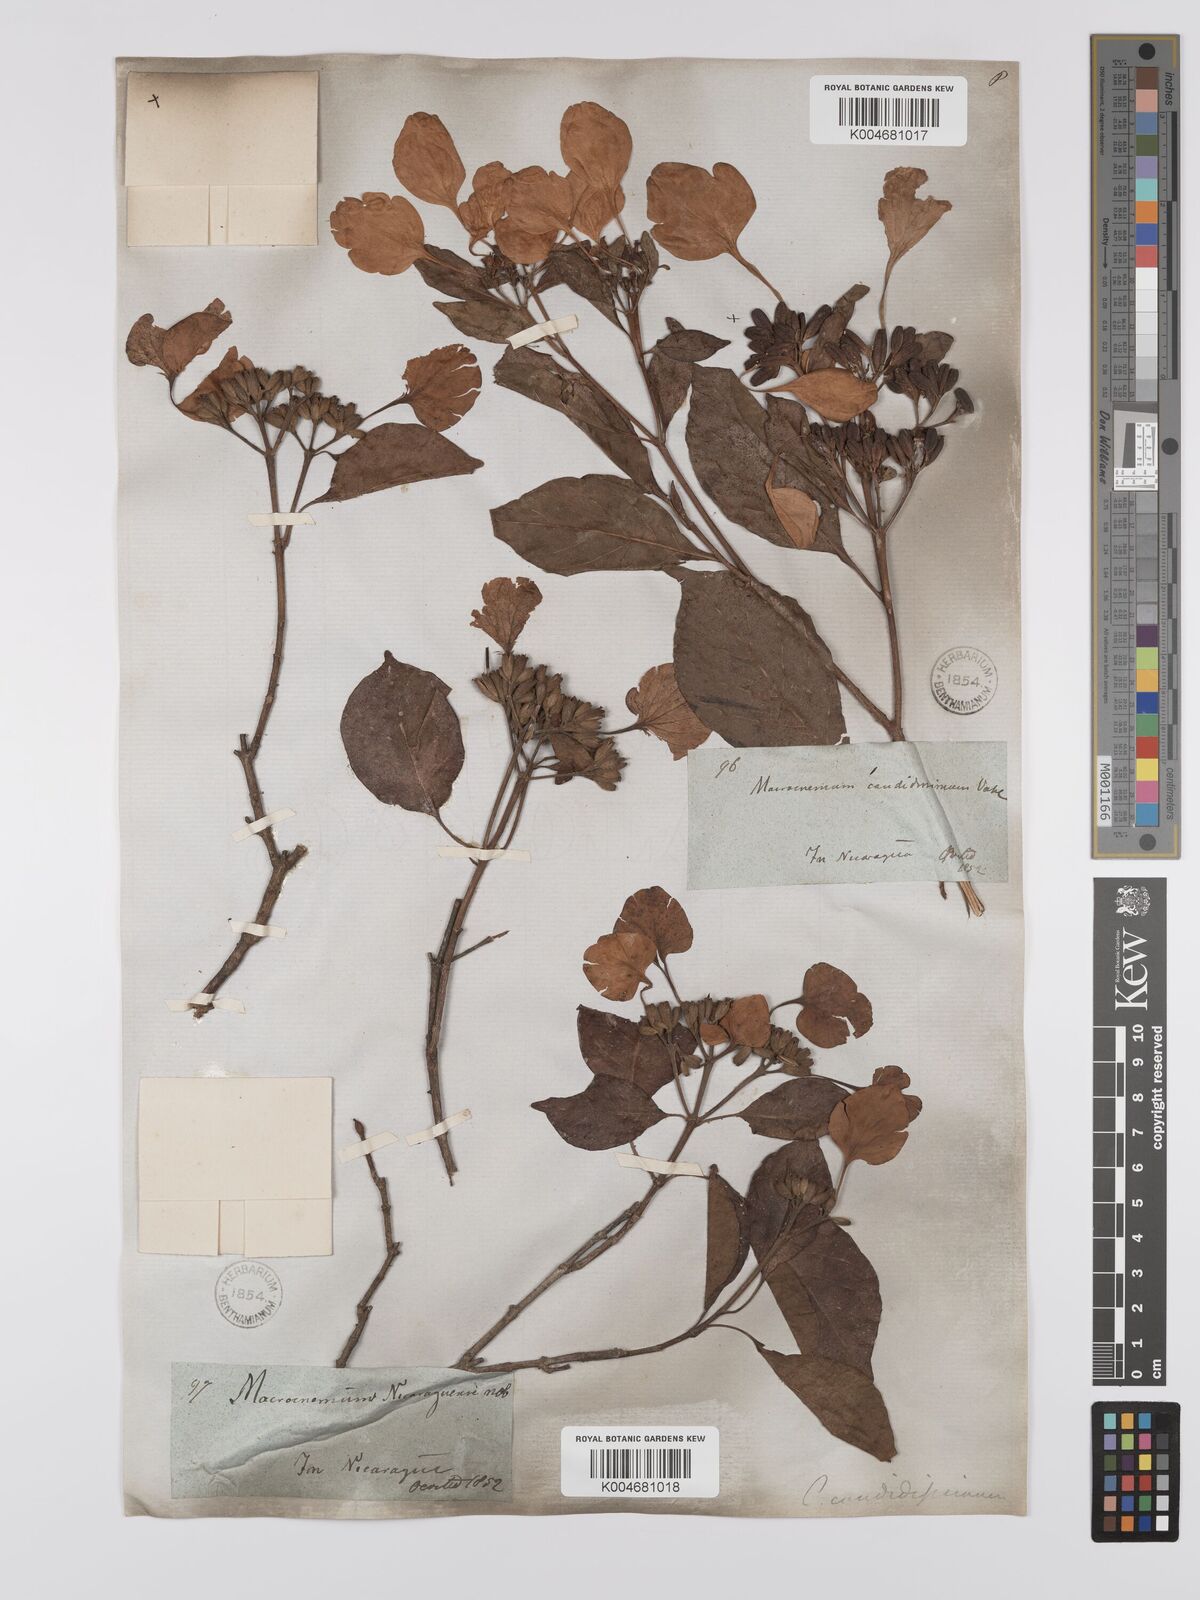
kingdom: Plantae
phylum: Tracheophyta
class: Magnoliopsida
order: Gentianales
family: Rubiaceae
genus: Calycophyllum
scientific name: Calycophyllum candidissimum
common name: Dagame
